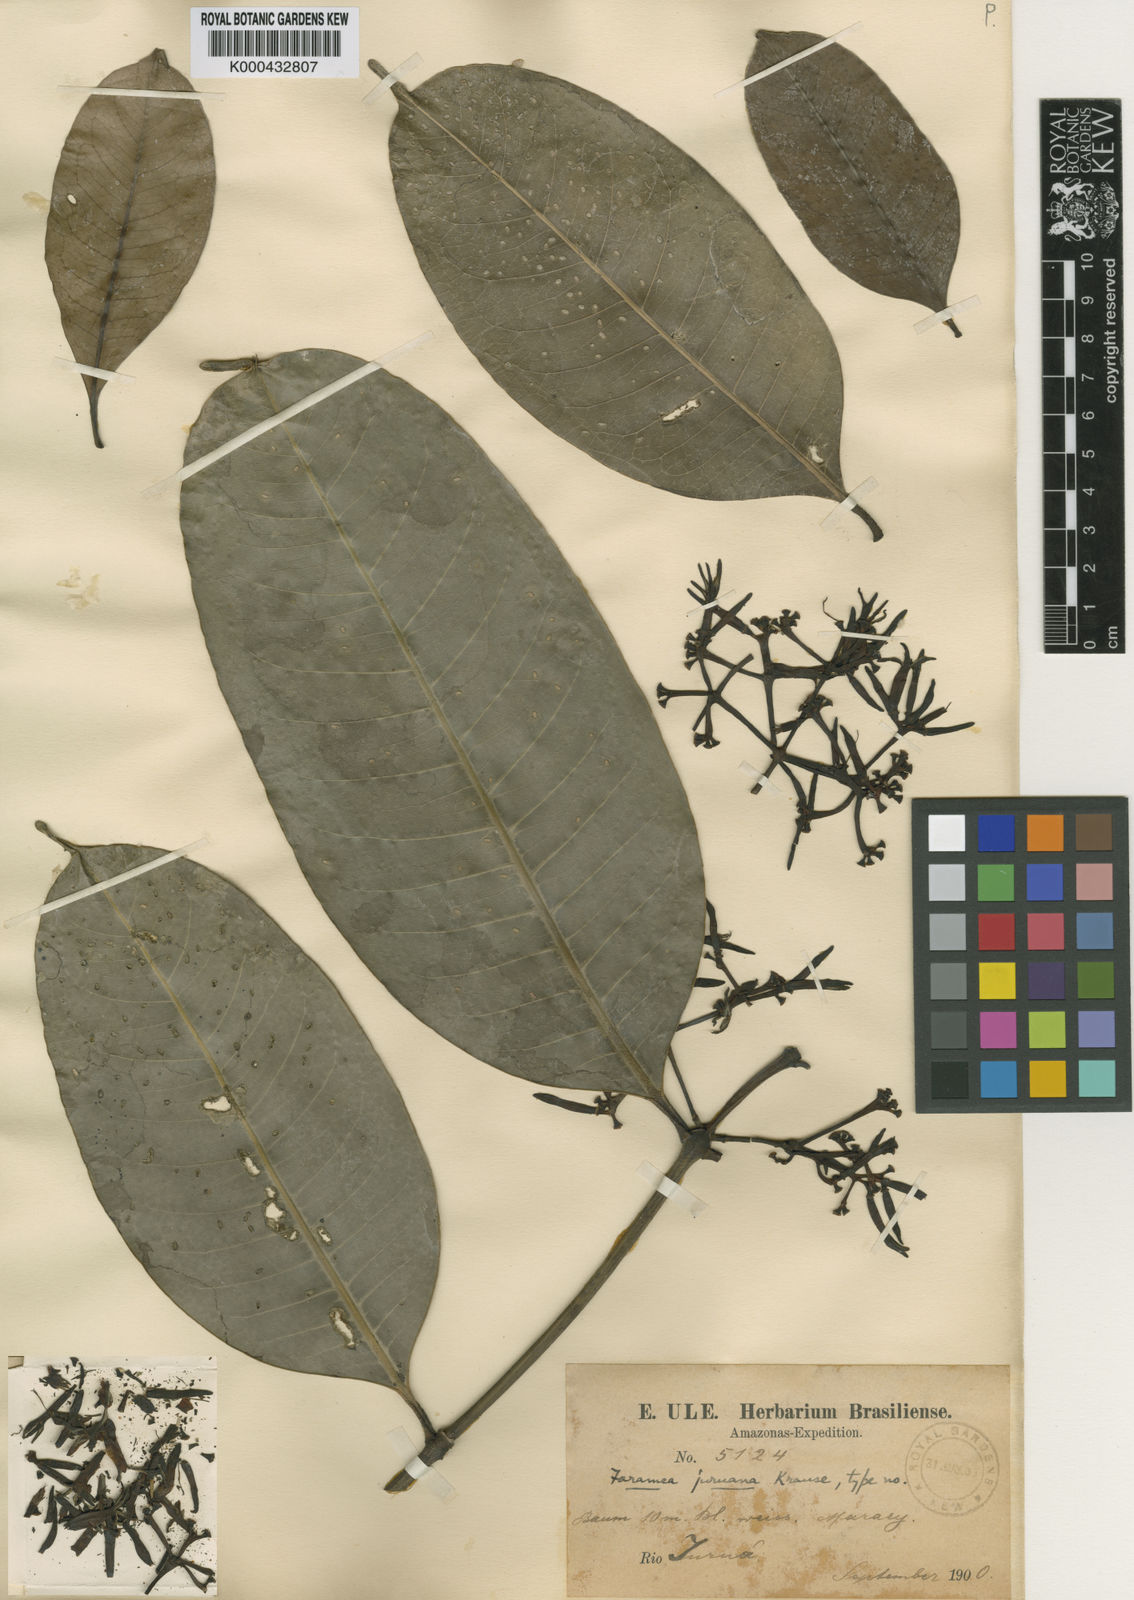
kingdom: Plantae
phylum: Tracheophyta
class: Magnoliopsida
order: Gentianales
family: Rubiaceae
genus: Faramea
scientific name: Faramea juruana
